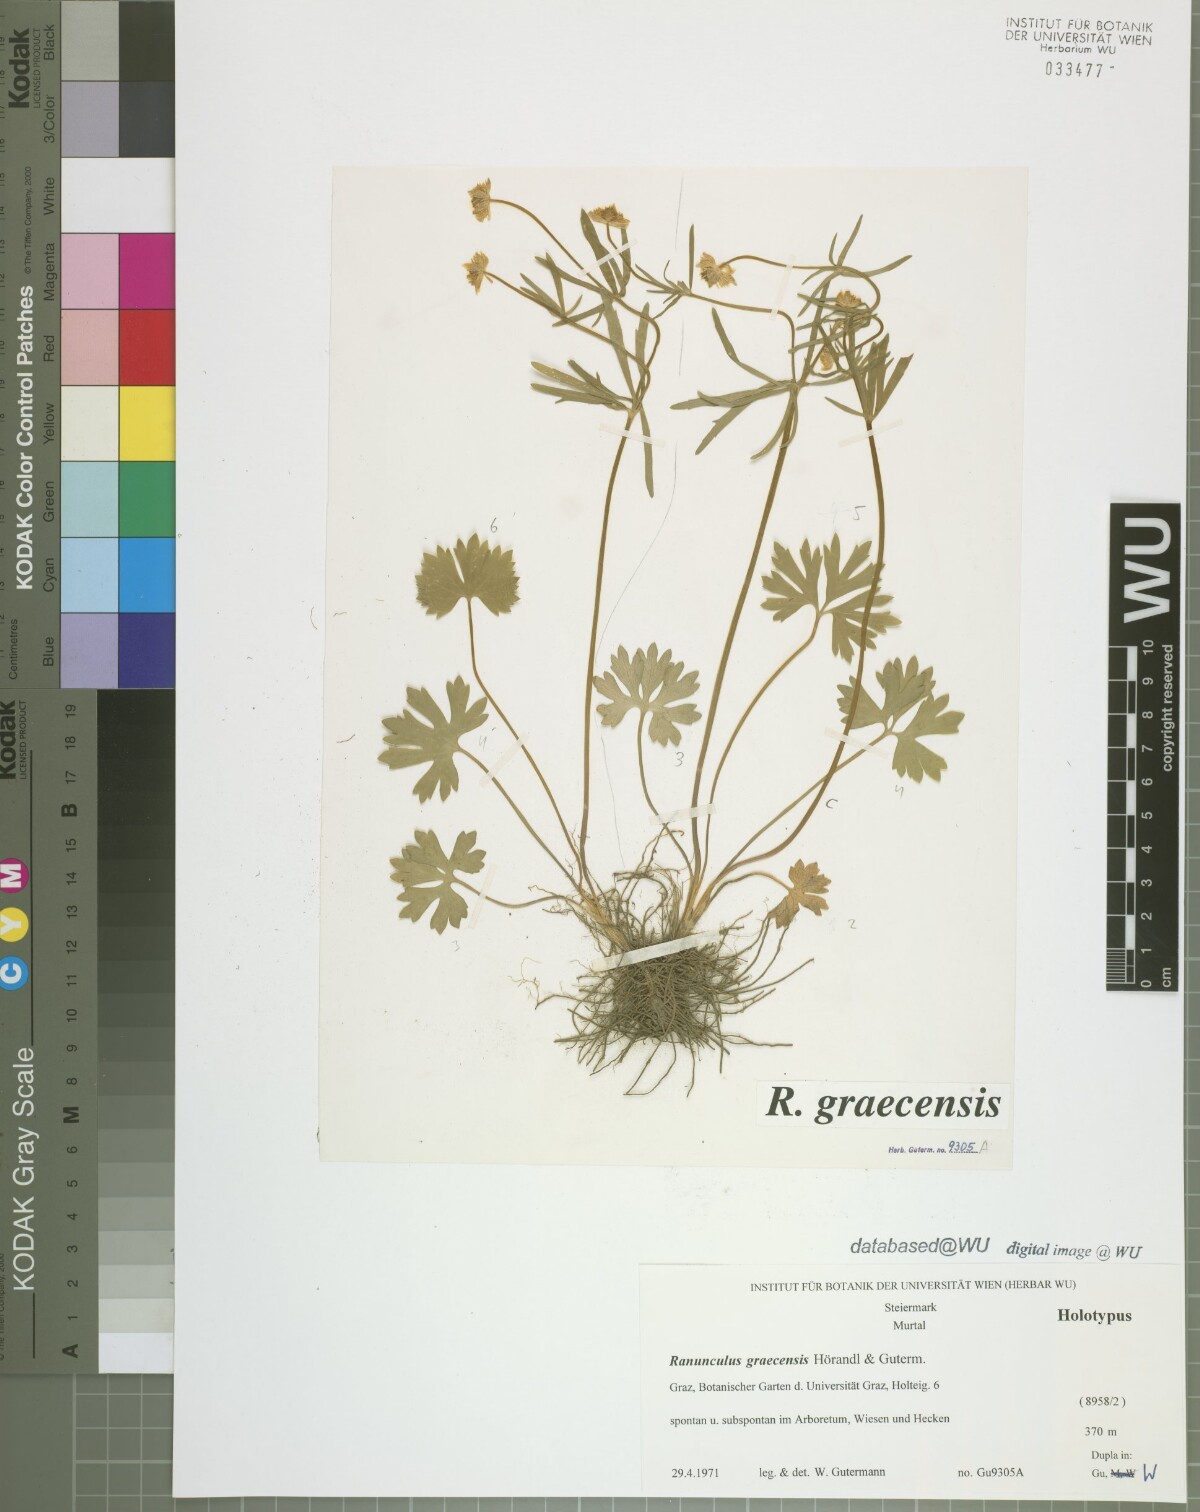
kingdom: Plantae
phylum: Tracheophyta
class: Magnoliopsida
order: Ranunculales
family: Ranunculaceae
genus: Ranunculus
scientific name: Ranunculus graecensis
